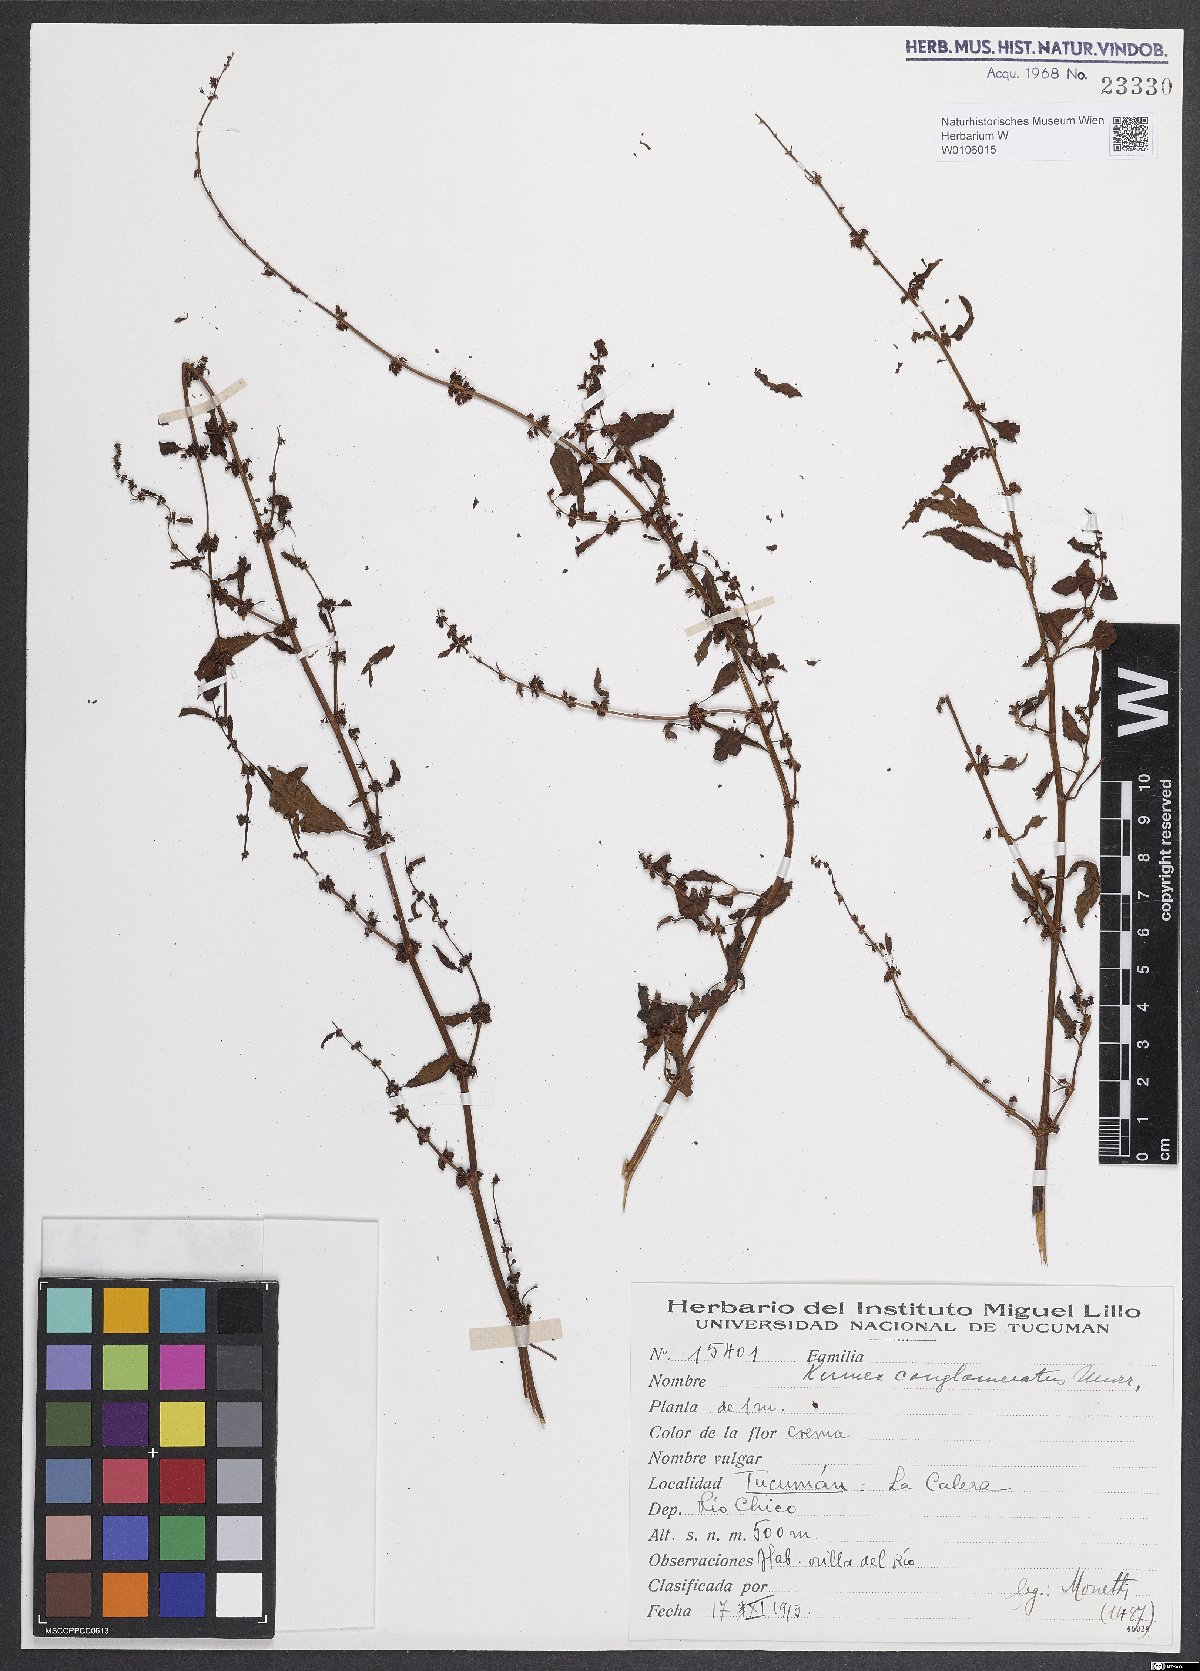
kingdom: Plantae
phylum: Tracheophyta
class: Magnoliopsida
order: Caryophyllales
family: Polygonaceae
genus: Rumex
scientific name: Rumex conglomeratus
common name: Clustered dock
